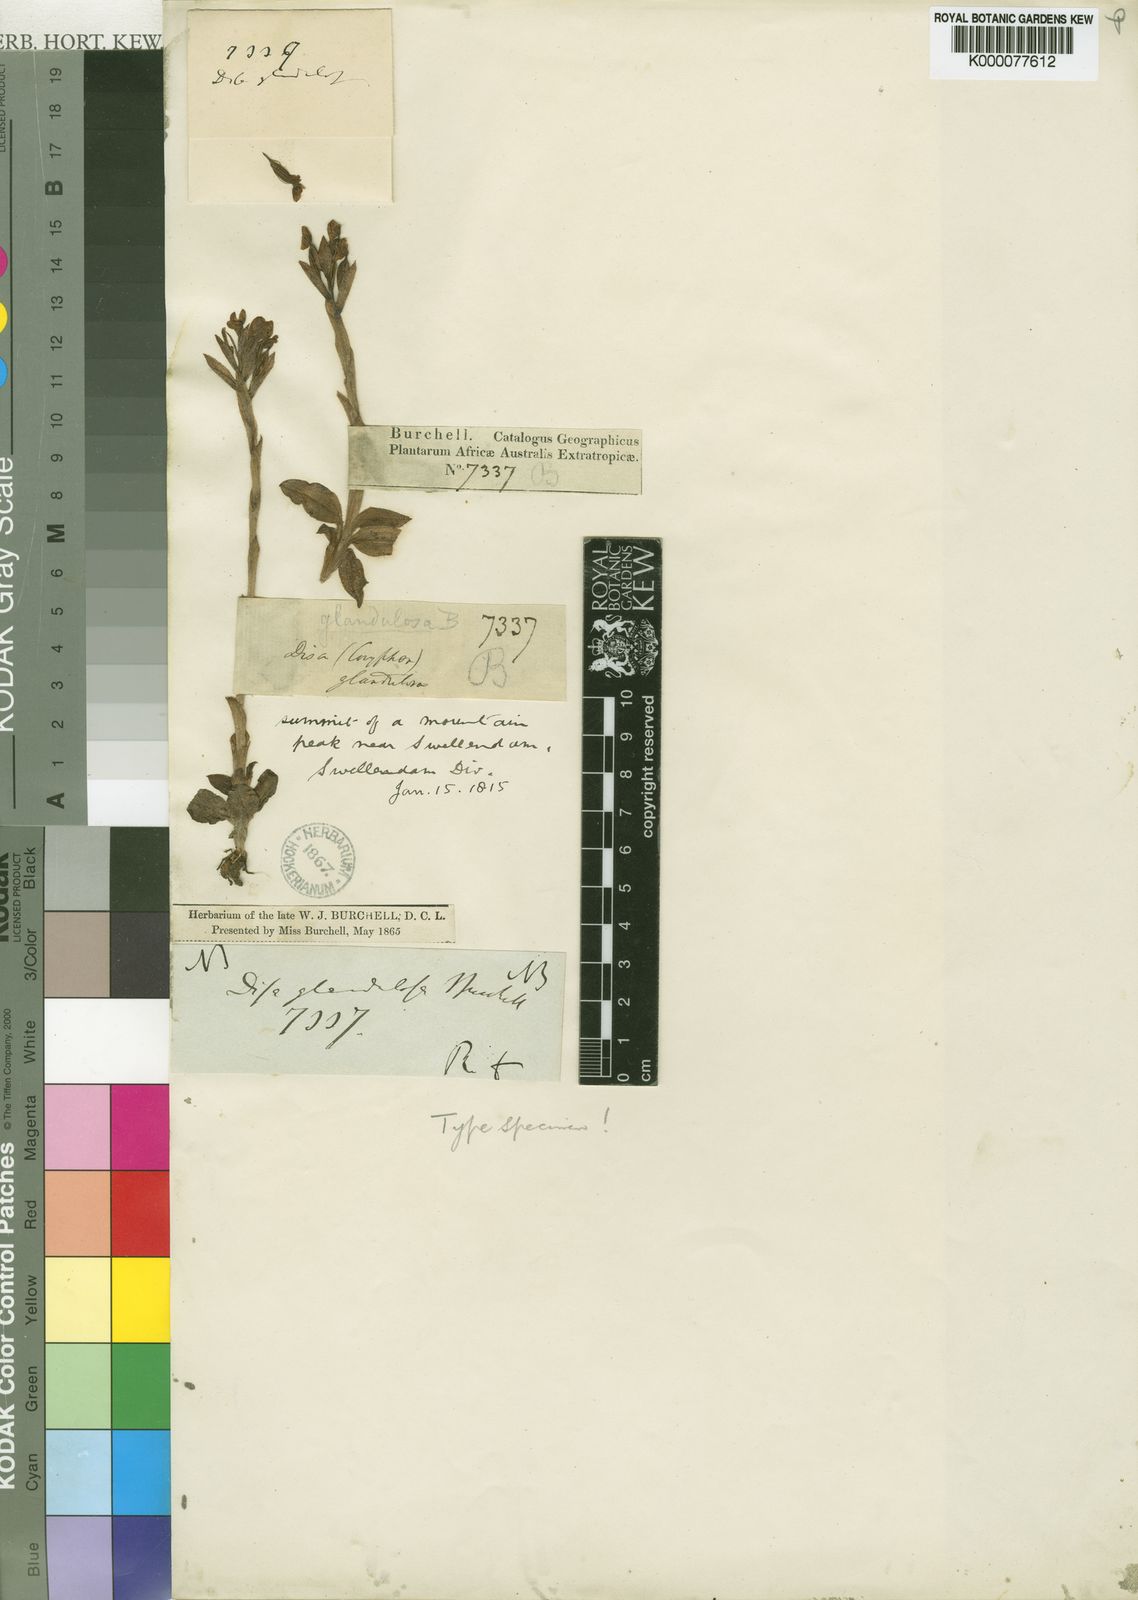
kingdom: Plantae
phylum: Tracheophyta
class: Liliopsida
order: Asparagales
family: Orchidaceae
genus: Disa
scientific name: Disa glandulosa
